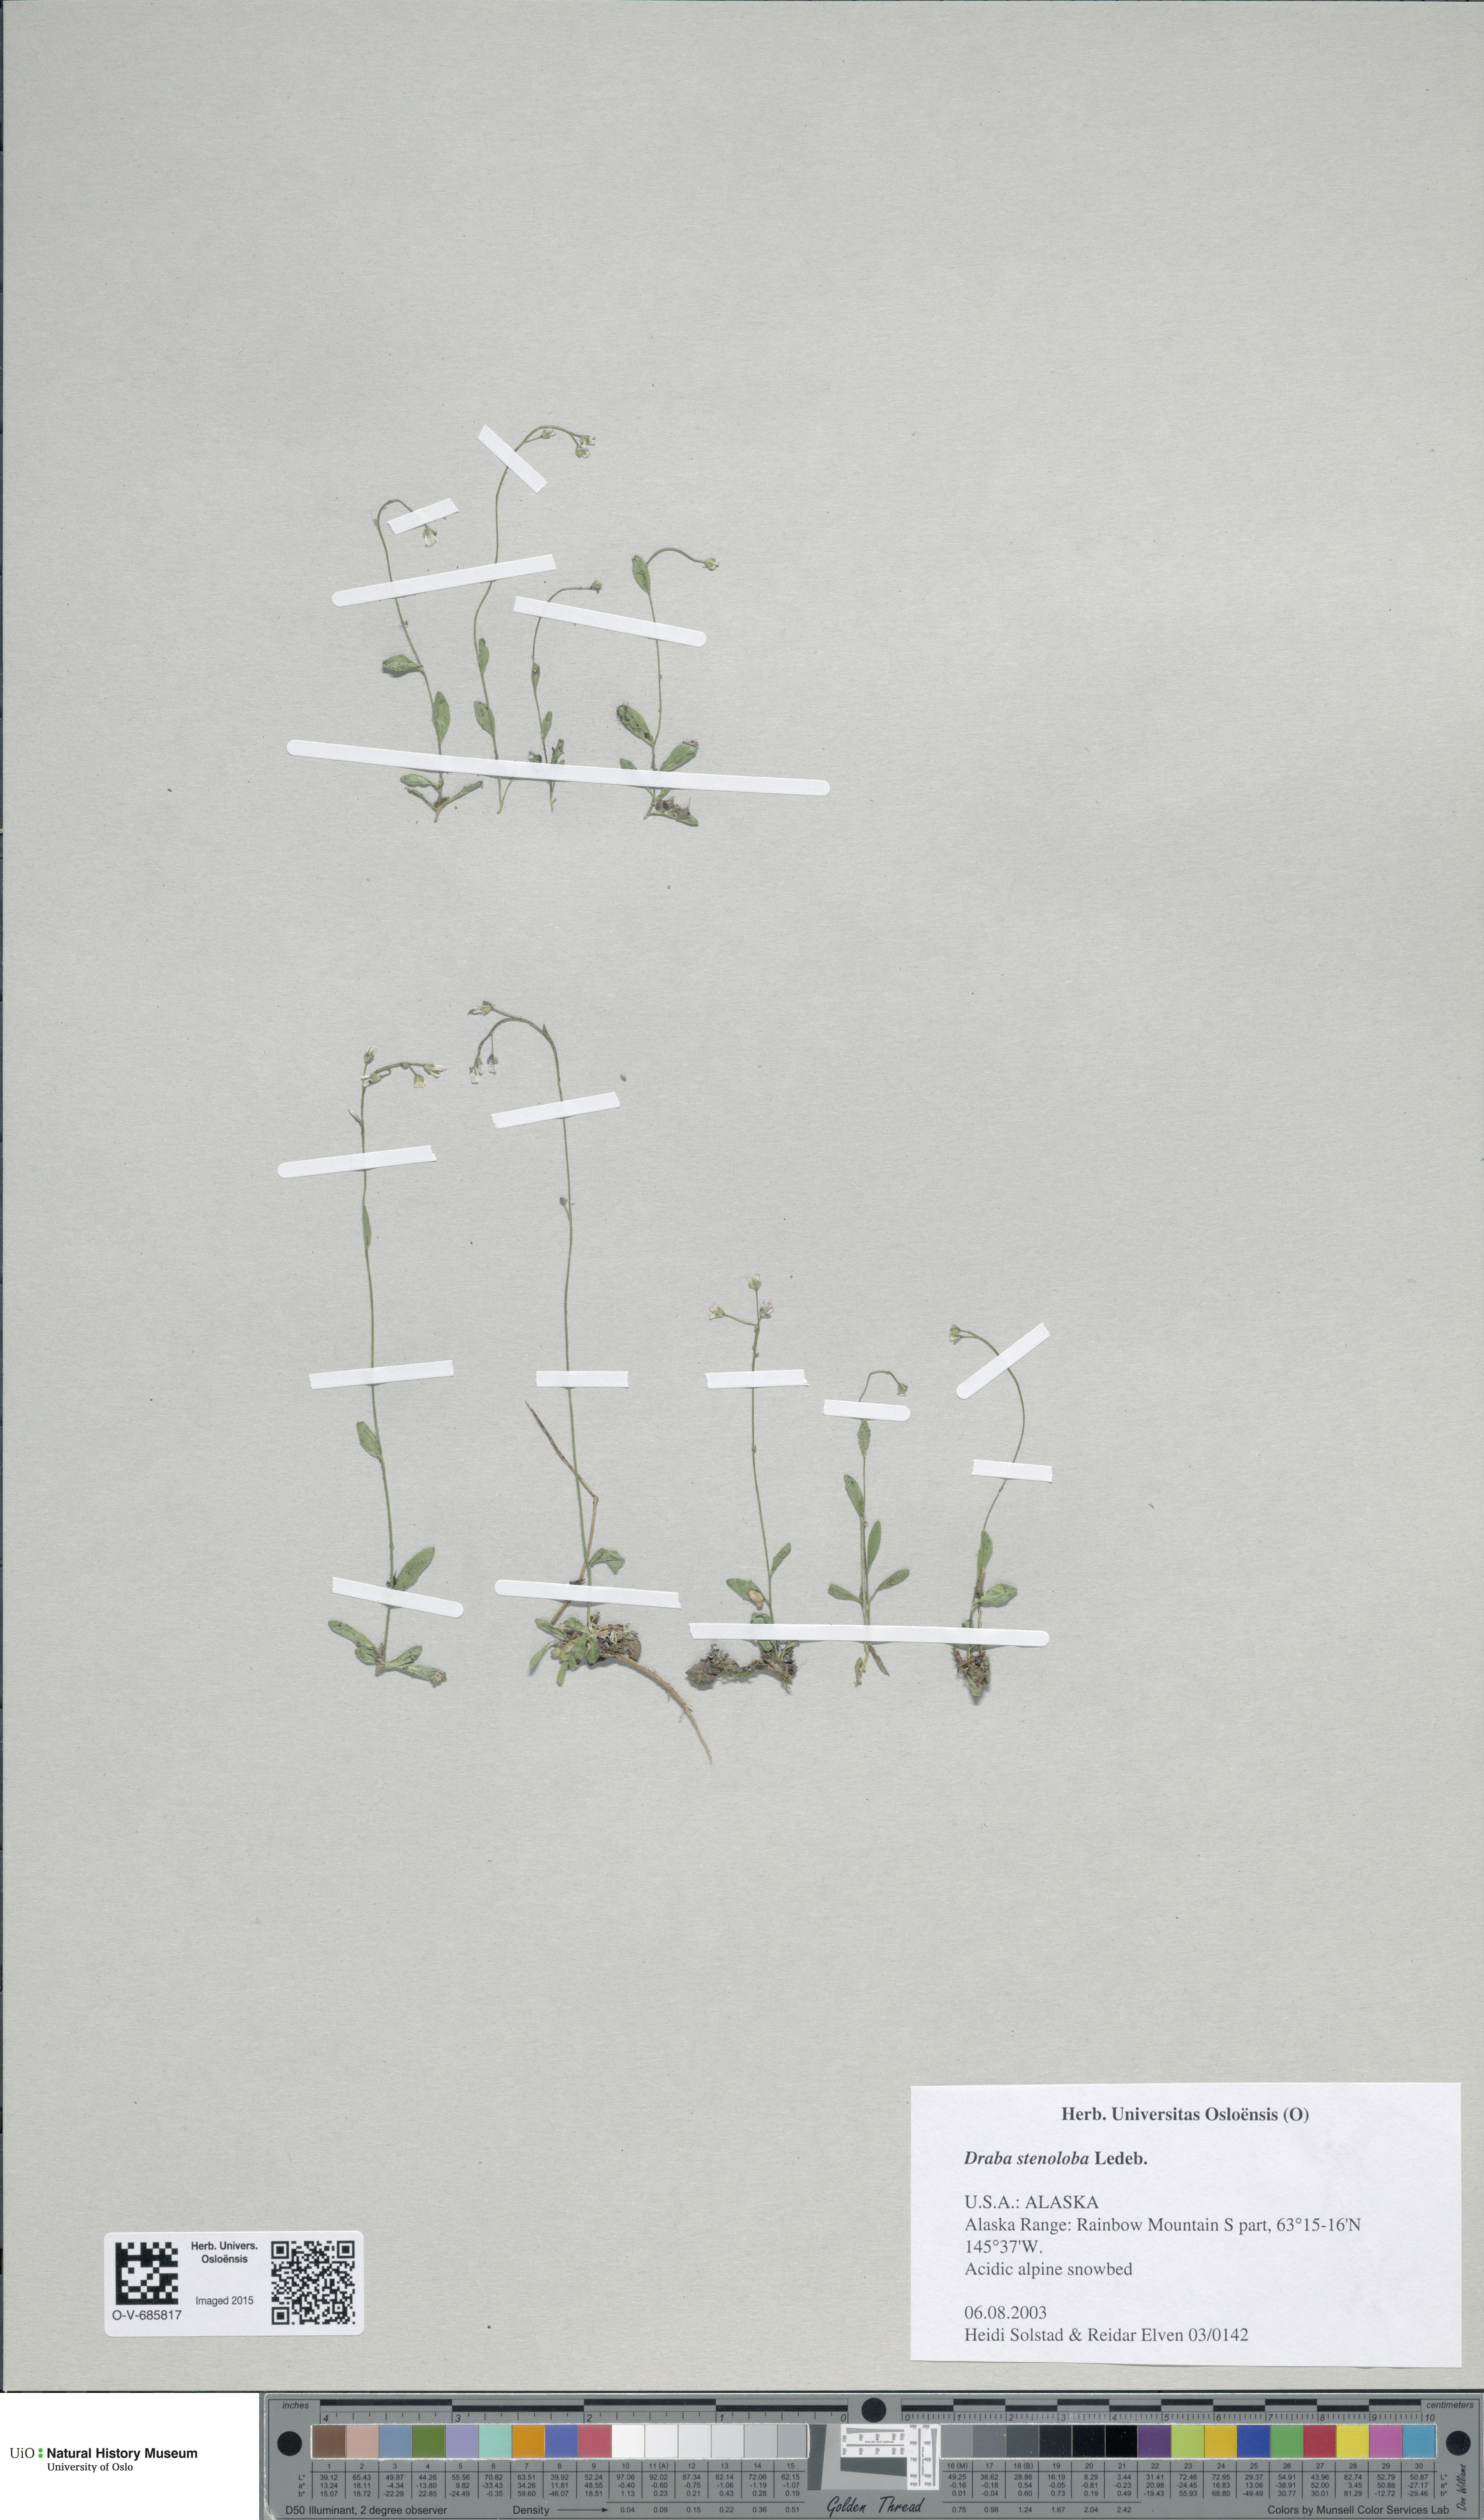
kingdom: Plantae
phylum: Tracheophyta
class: Magnoliopsida
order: Brassicales
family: Brassicaceae
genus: Draba
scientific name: Draba stenoloba
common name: Alaska draba
